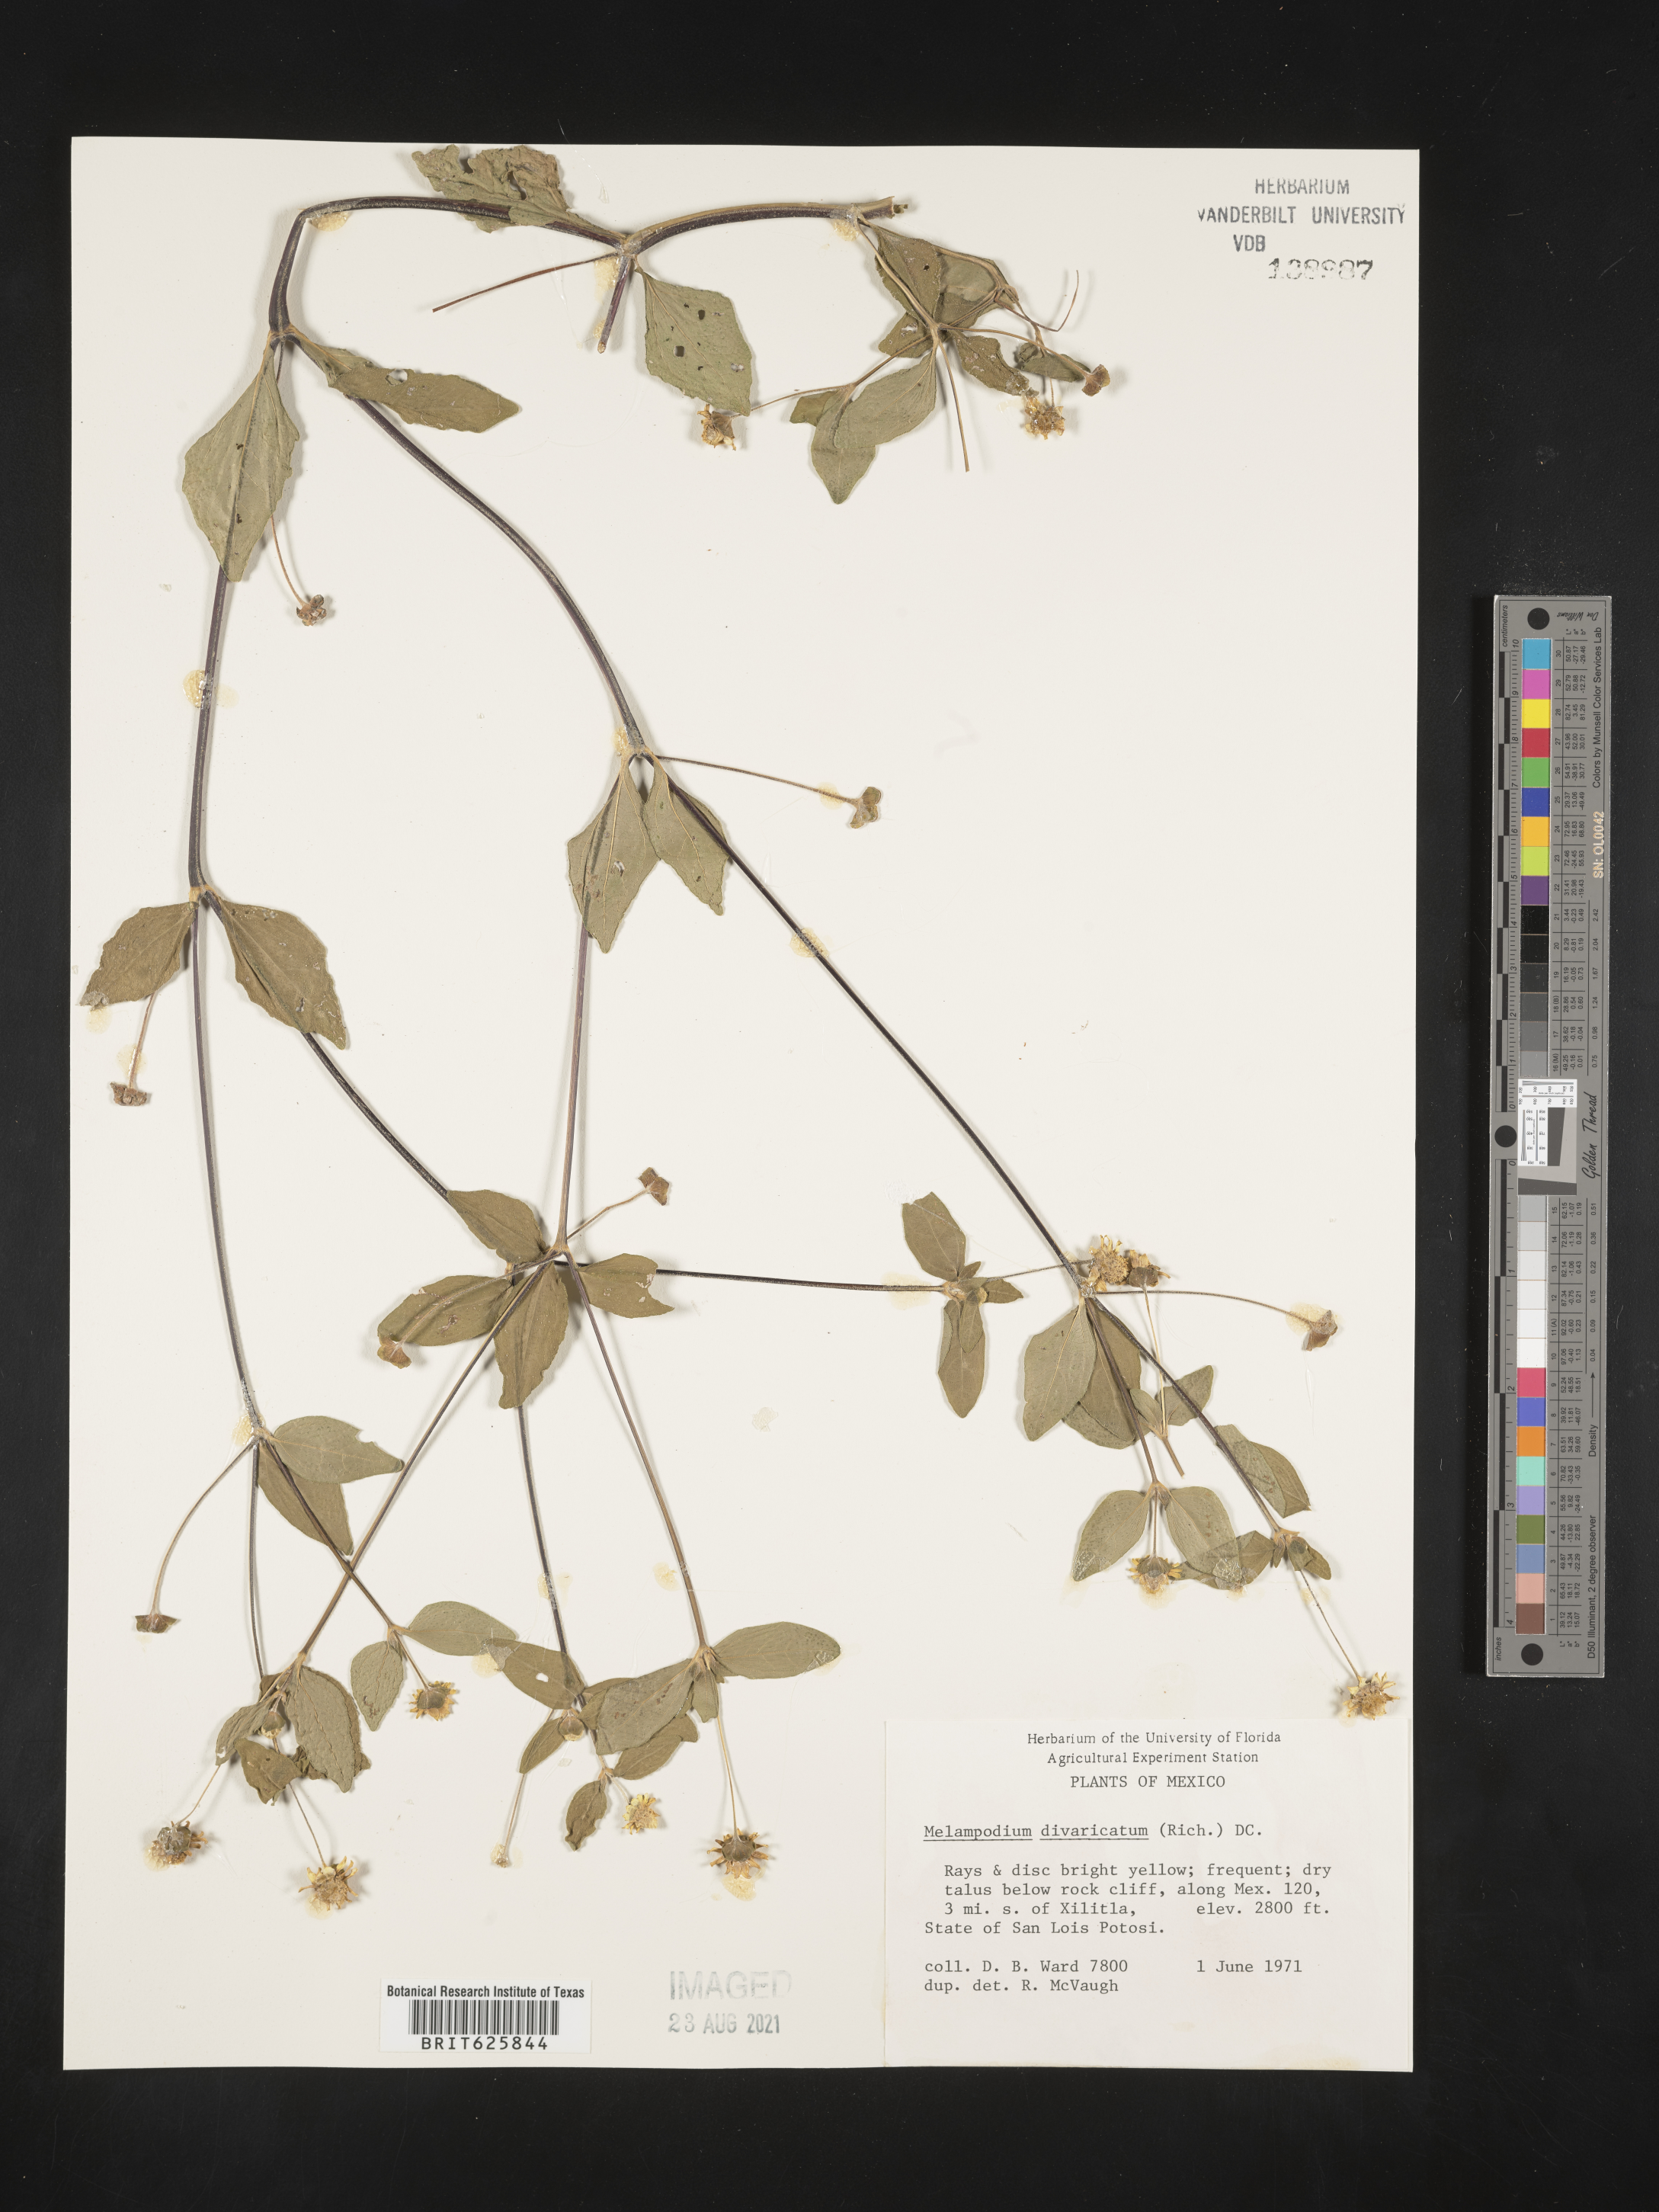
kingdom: Plantae
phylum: Tracheophyta
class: Magnoliopsida
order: Asterales
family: Asteraceae
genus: Melampodium
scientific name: Melampodium
